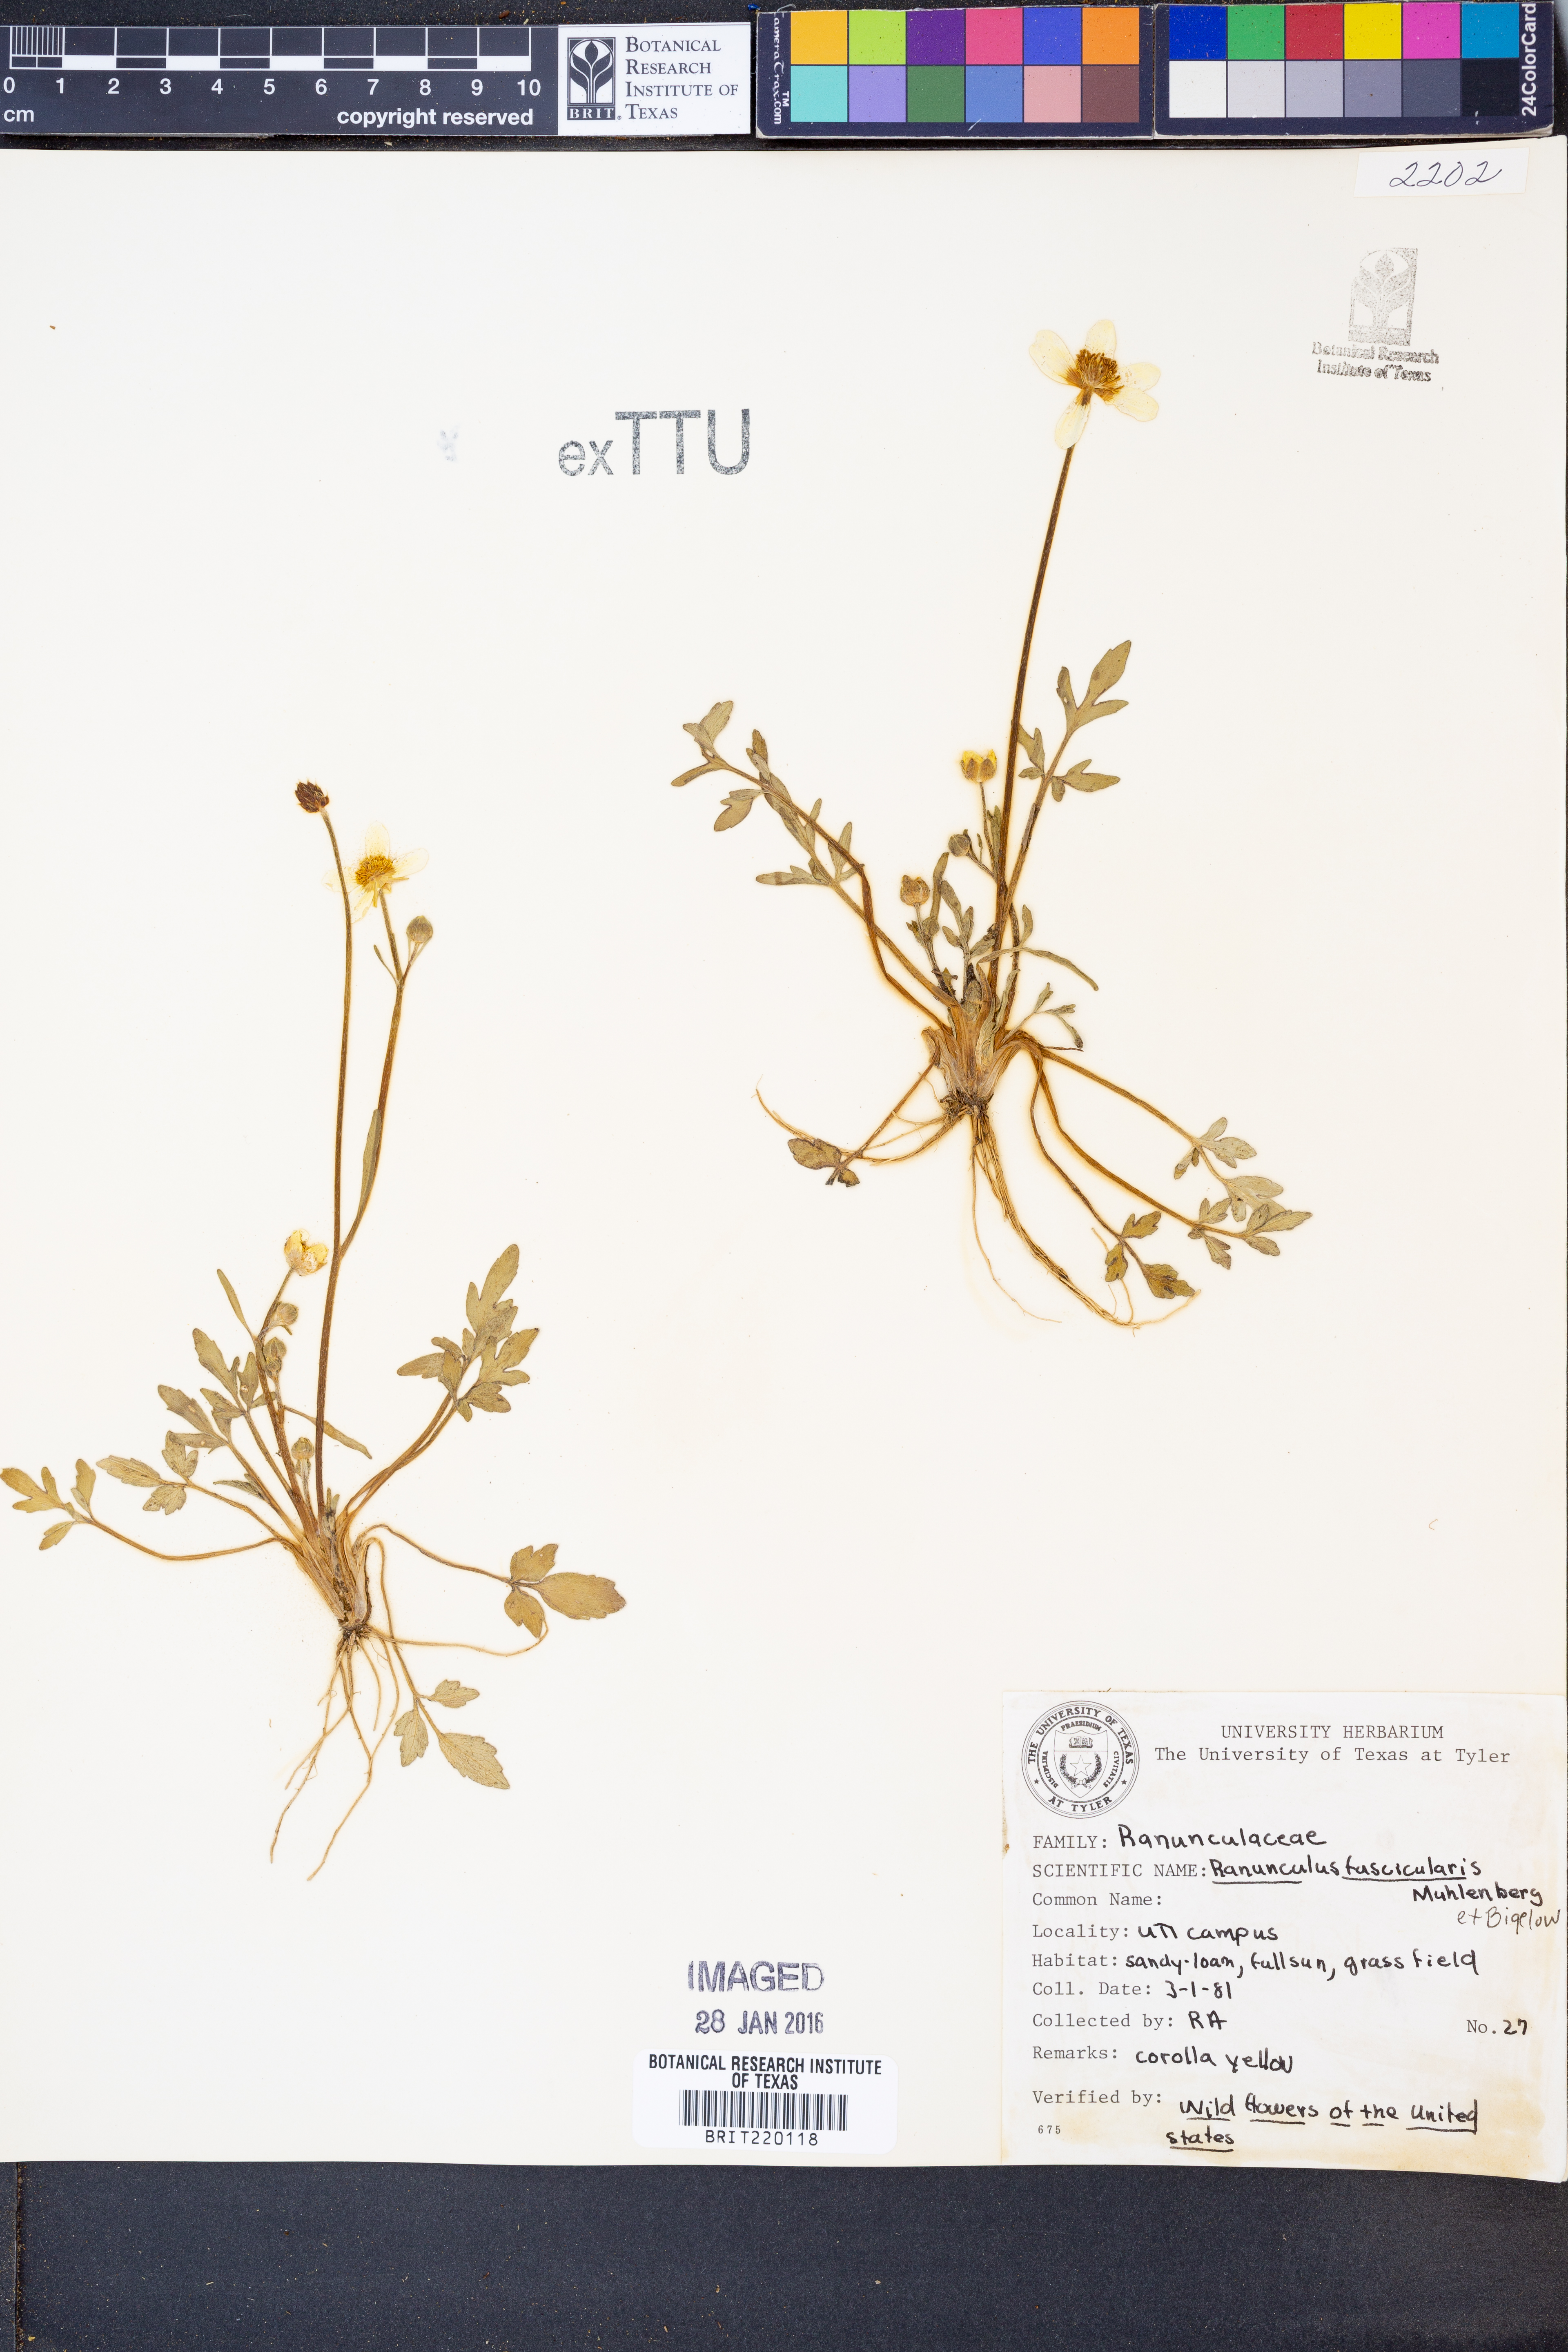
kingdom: Plantae
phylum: Tracheophyta
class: Magnoliopsida
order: Ranunculales
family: Ranunculaceae
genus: Ranunculus
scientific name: Ranunculus fascicularis
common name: Early buttercup
